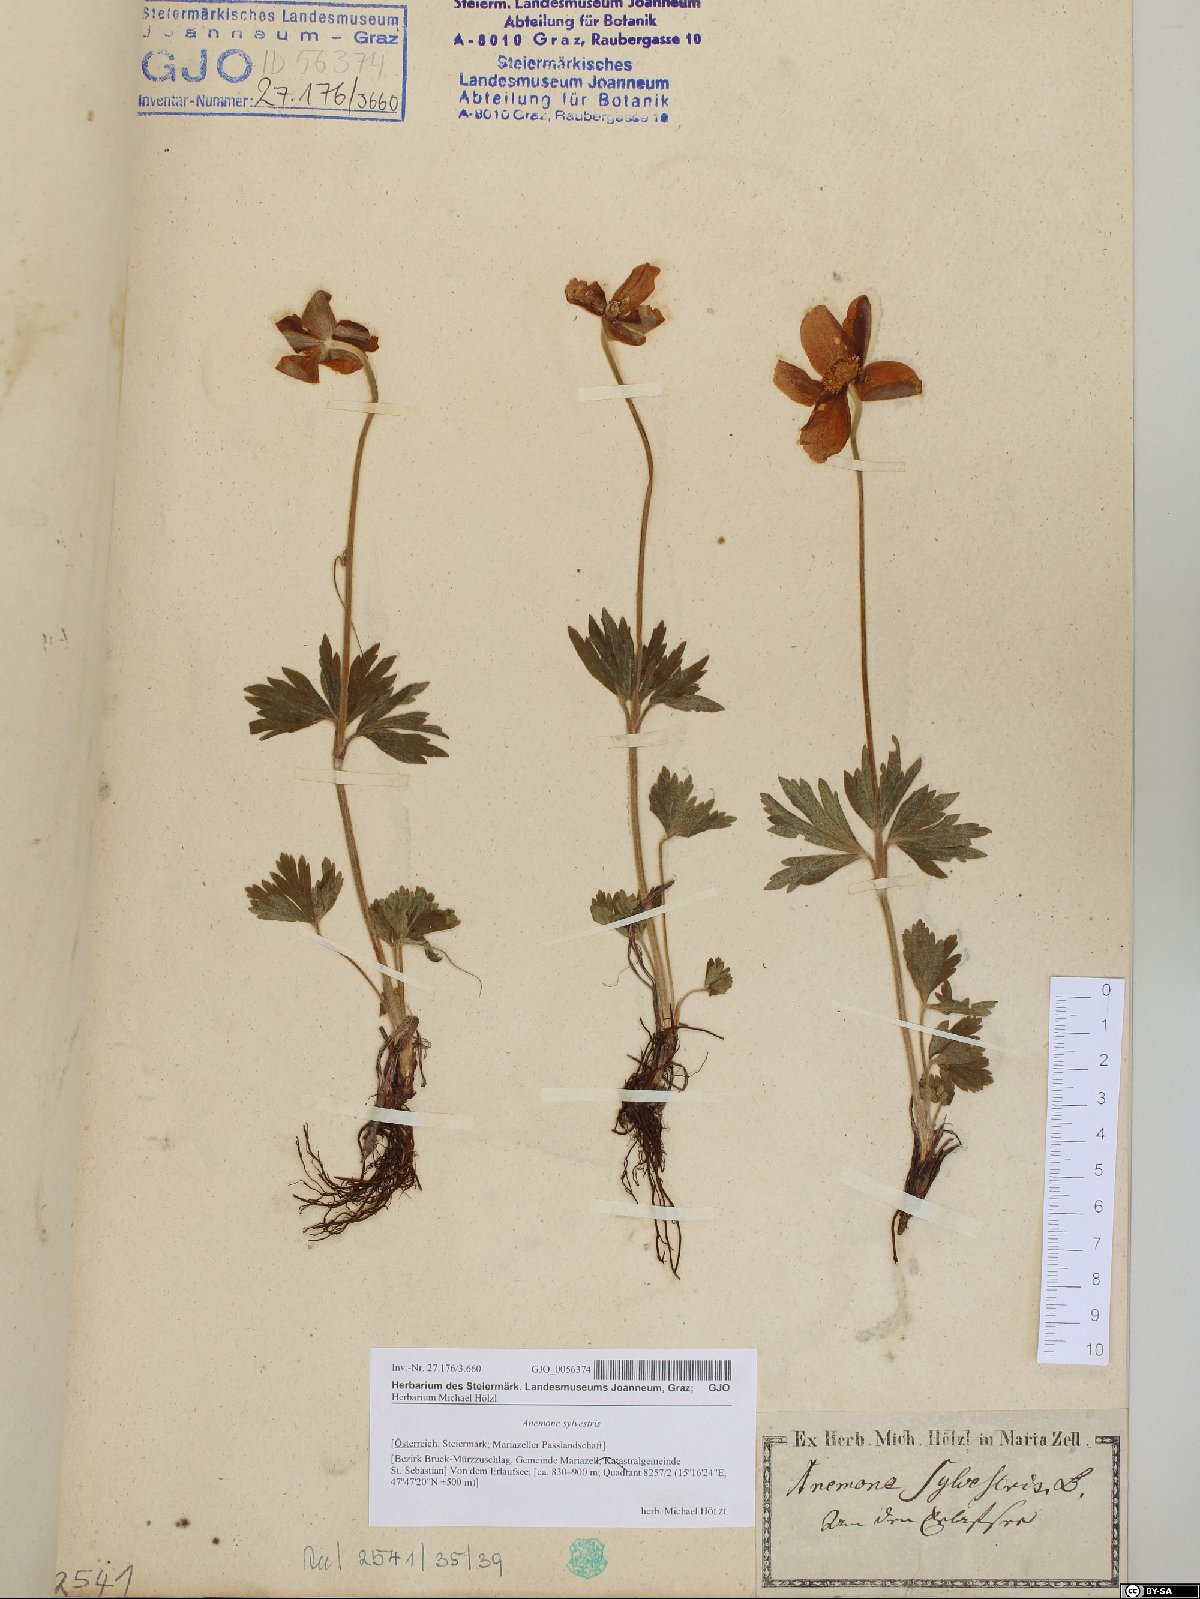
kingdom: Plantae
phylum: Tracheophyta
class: Magnoliopsida
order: Ranunculales
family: Ranunculaceae
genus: Anemone
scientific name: Anemone sylvestris
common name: Snowdrop anemone
